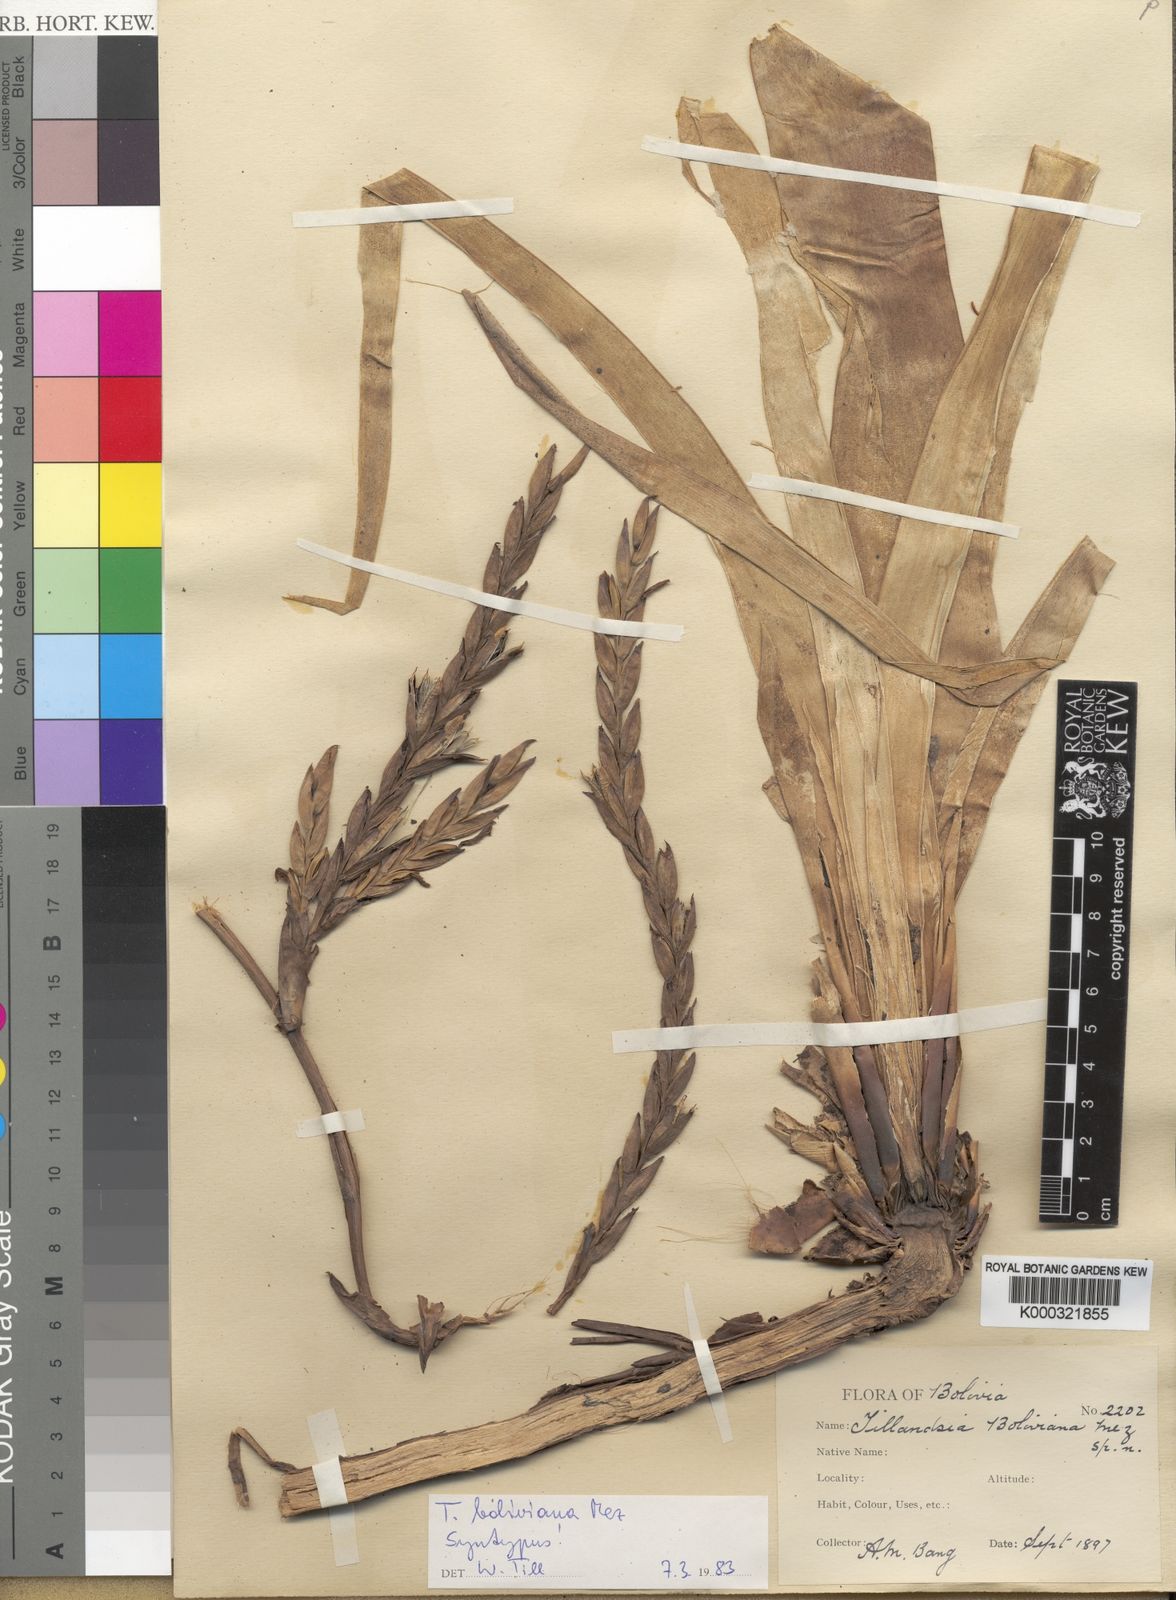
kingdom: Plantae
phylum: Tracheophyta
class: Liliopsida
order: Poales
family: Bromeliaceae
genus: Tillandsia
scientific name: Tillandsia boliviana
